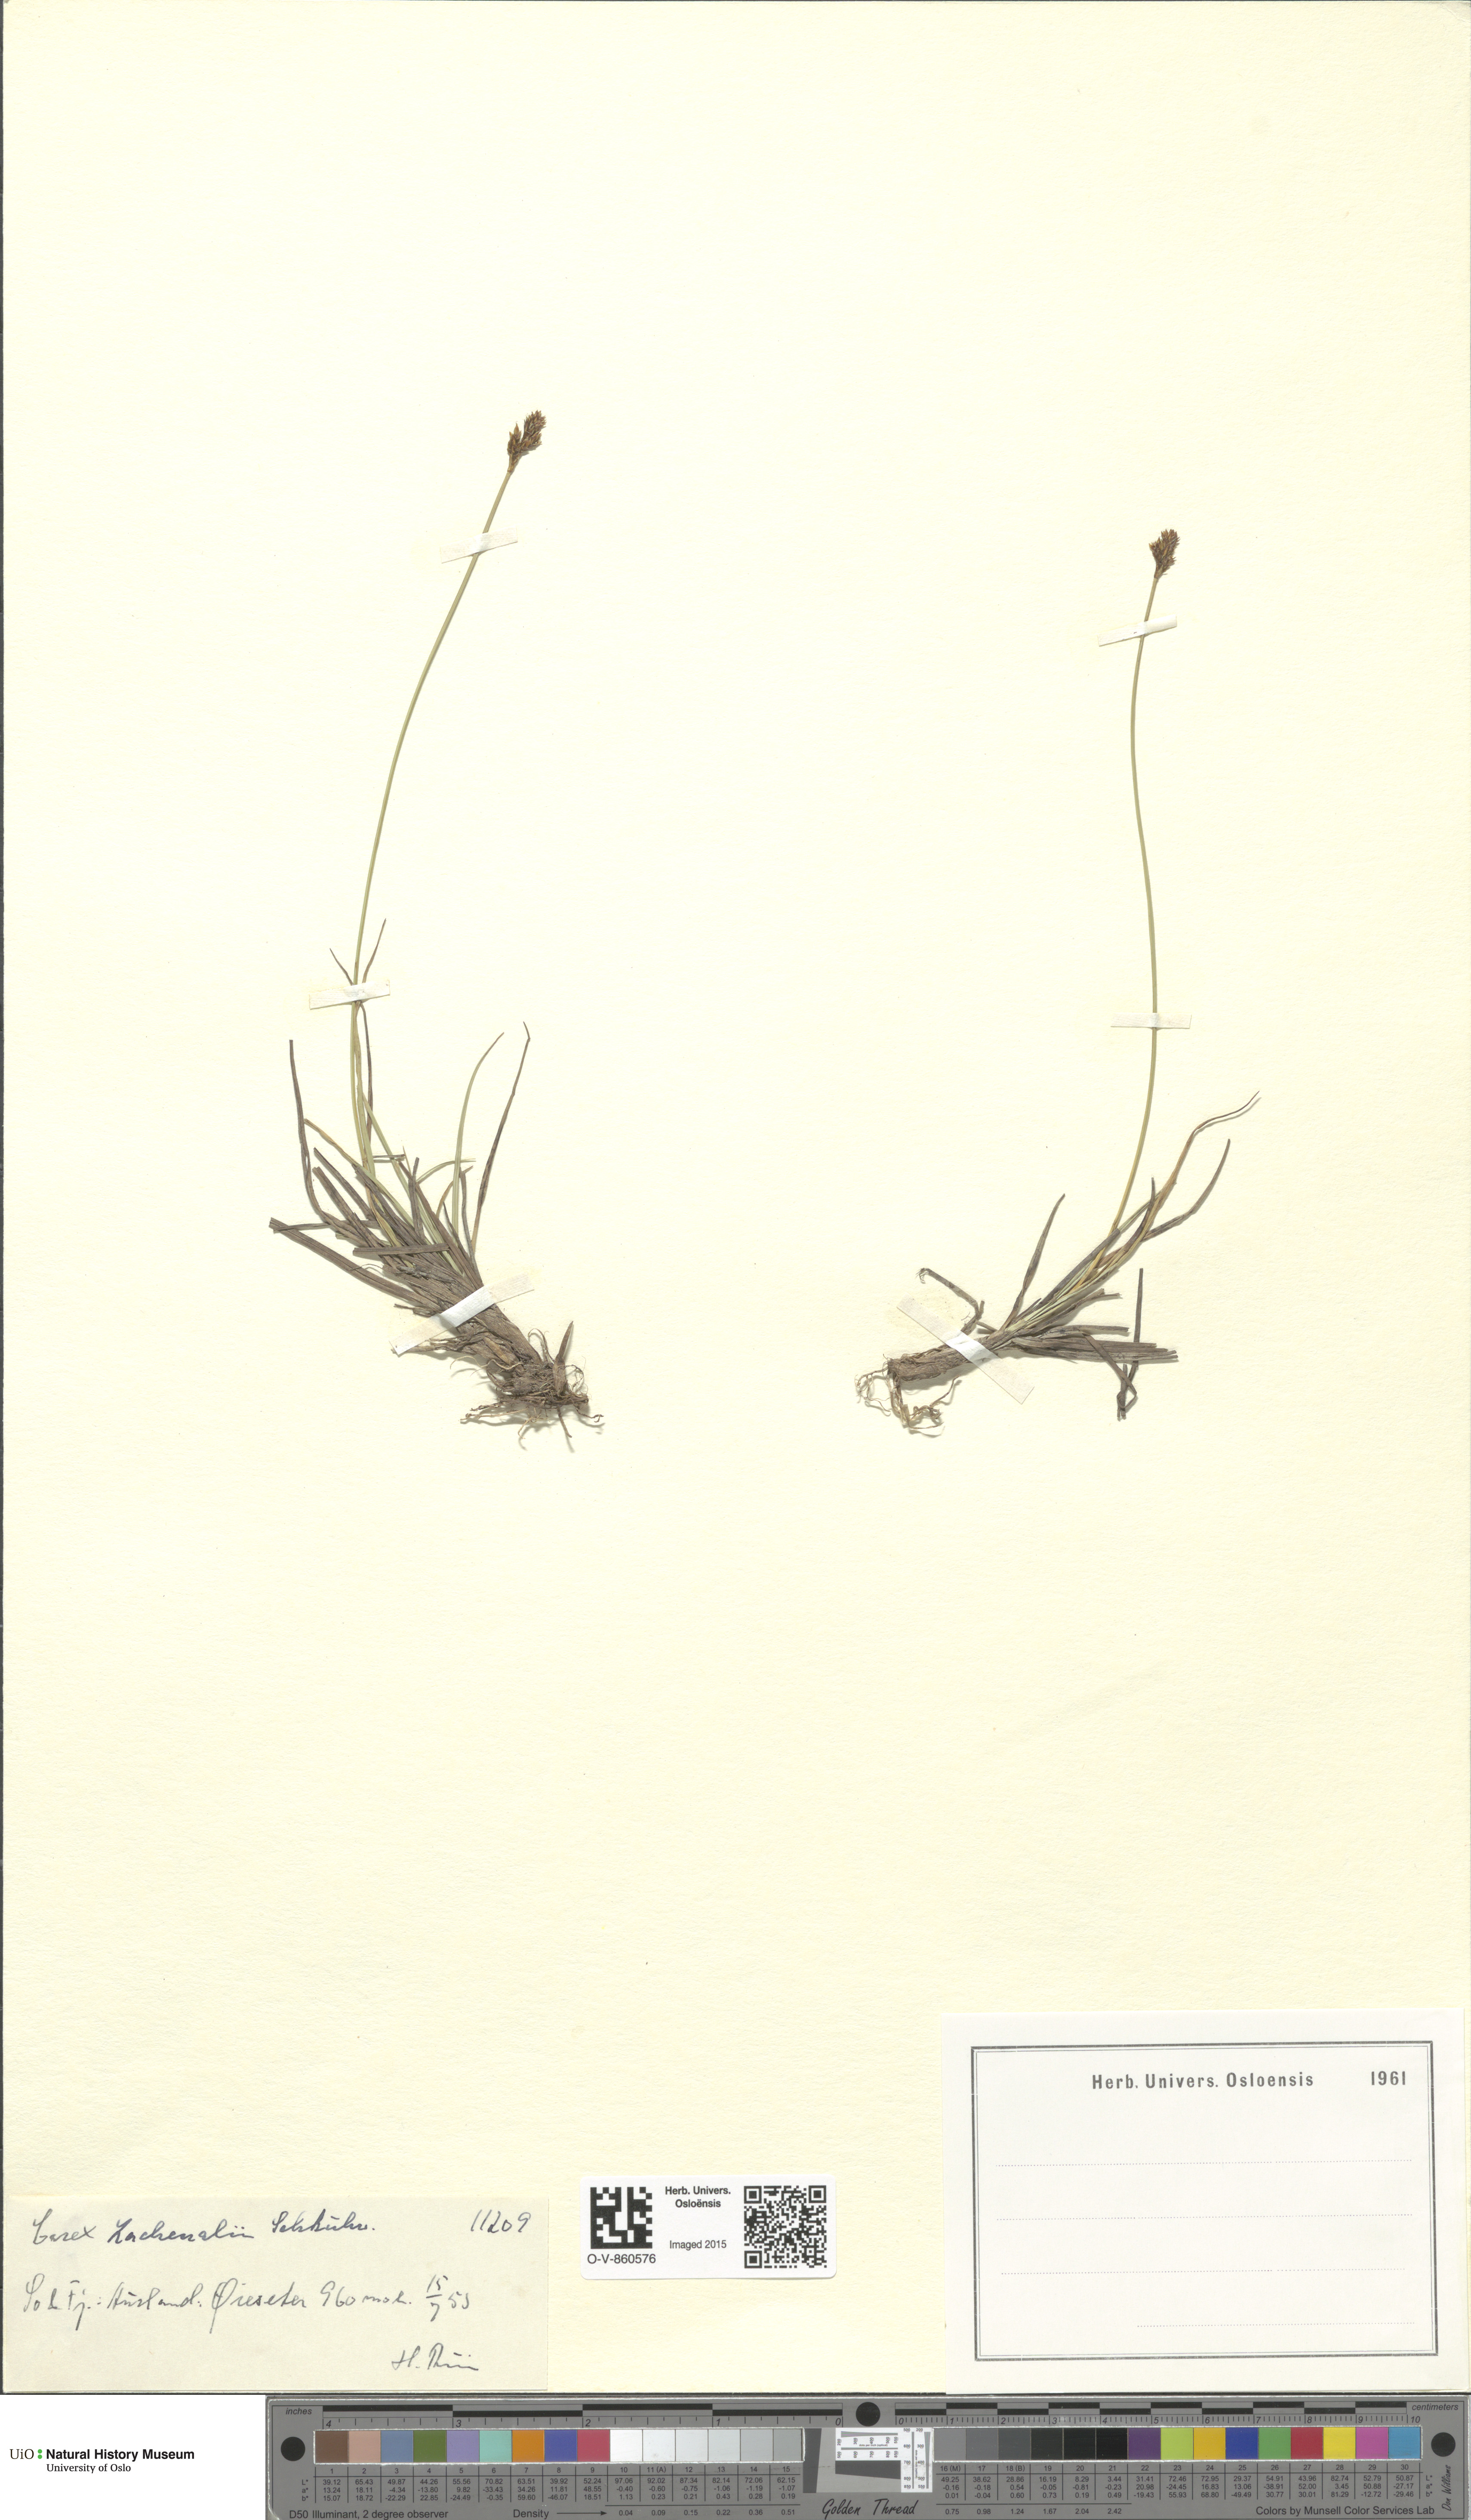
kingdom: Plantae
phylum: Tracheophyta
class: Liliopsida
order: Poales
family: Cyperaceae
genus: Carex
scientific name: Carex lachenalii
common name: Hare's-foot sedge
